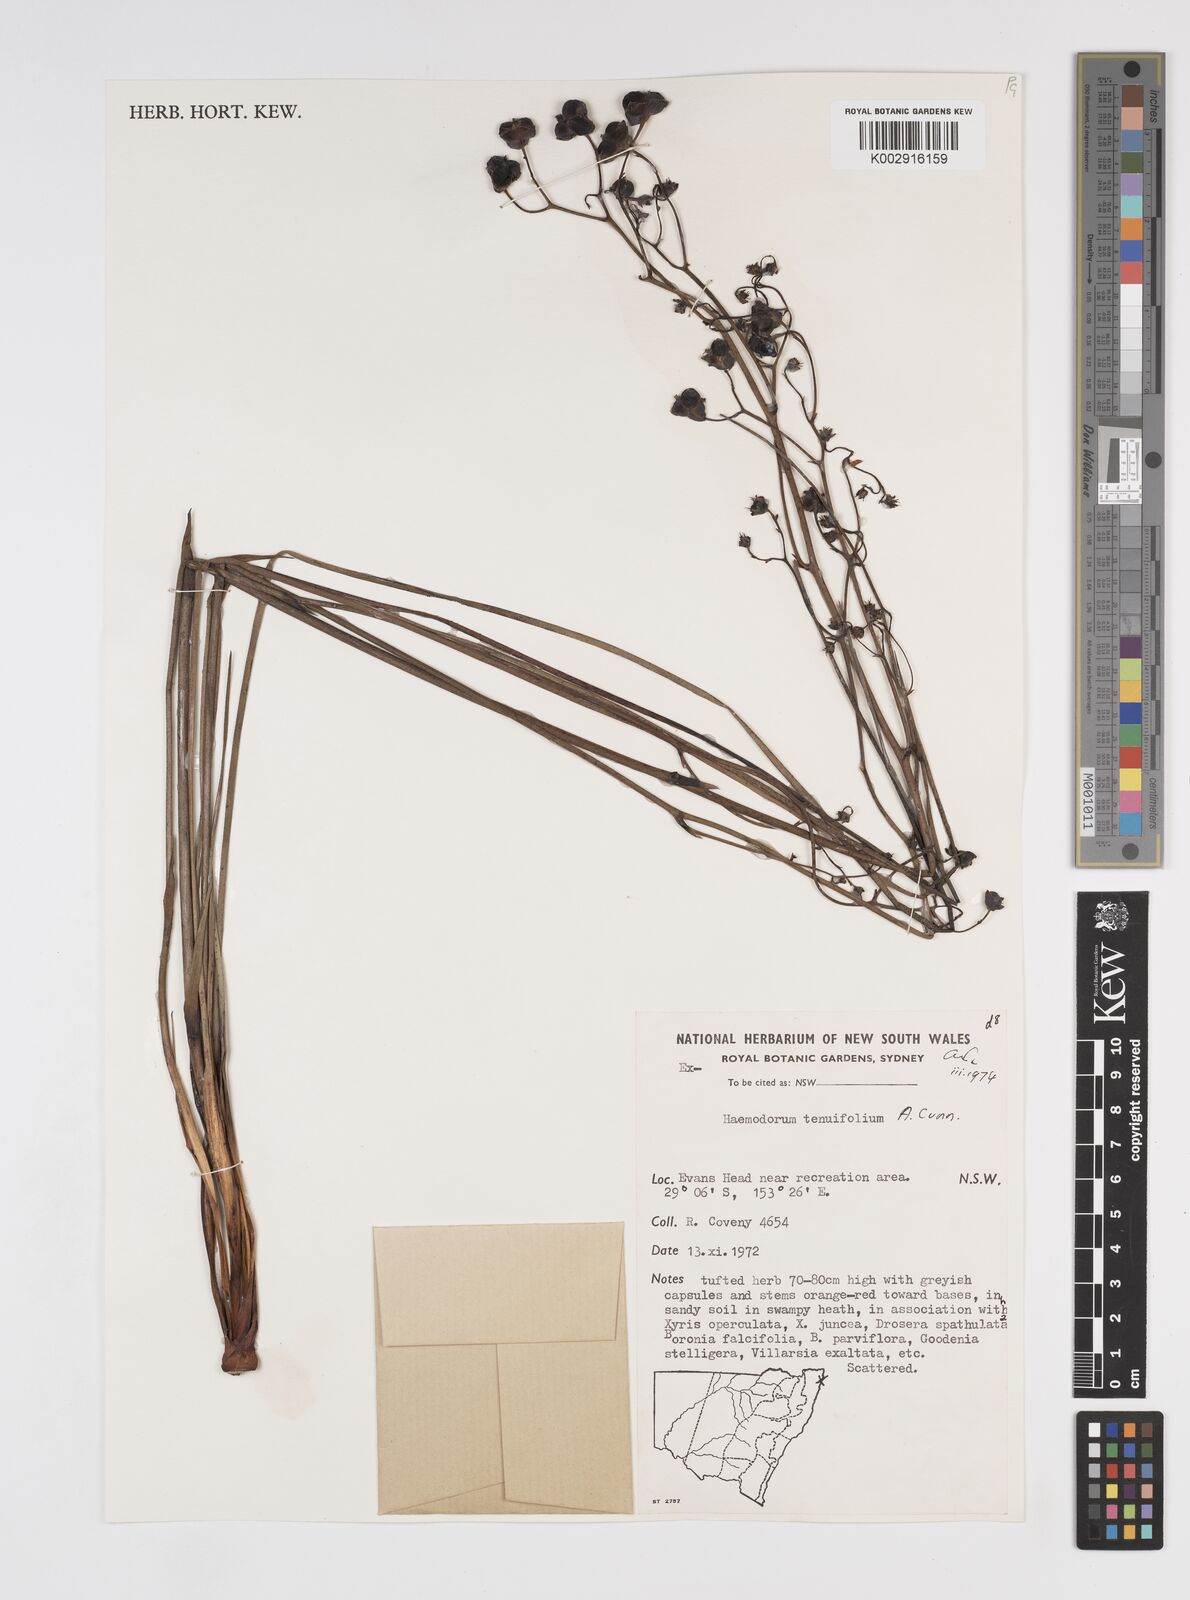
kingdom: Plantae
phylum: Tracheophyta
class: Liliopsida
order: Commelinales
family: Haemodoraceae
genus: Haemodorum
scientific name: Haemodorum tenuifolium
